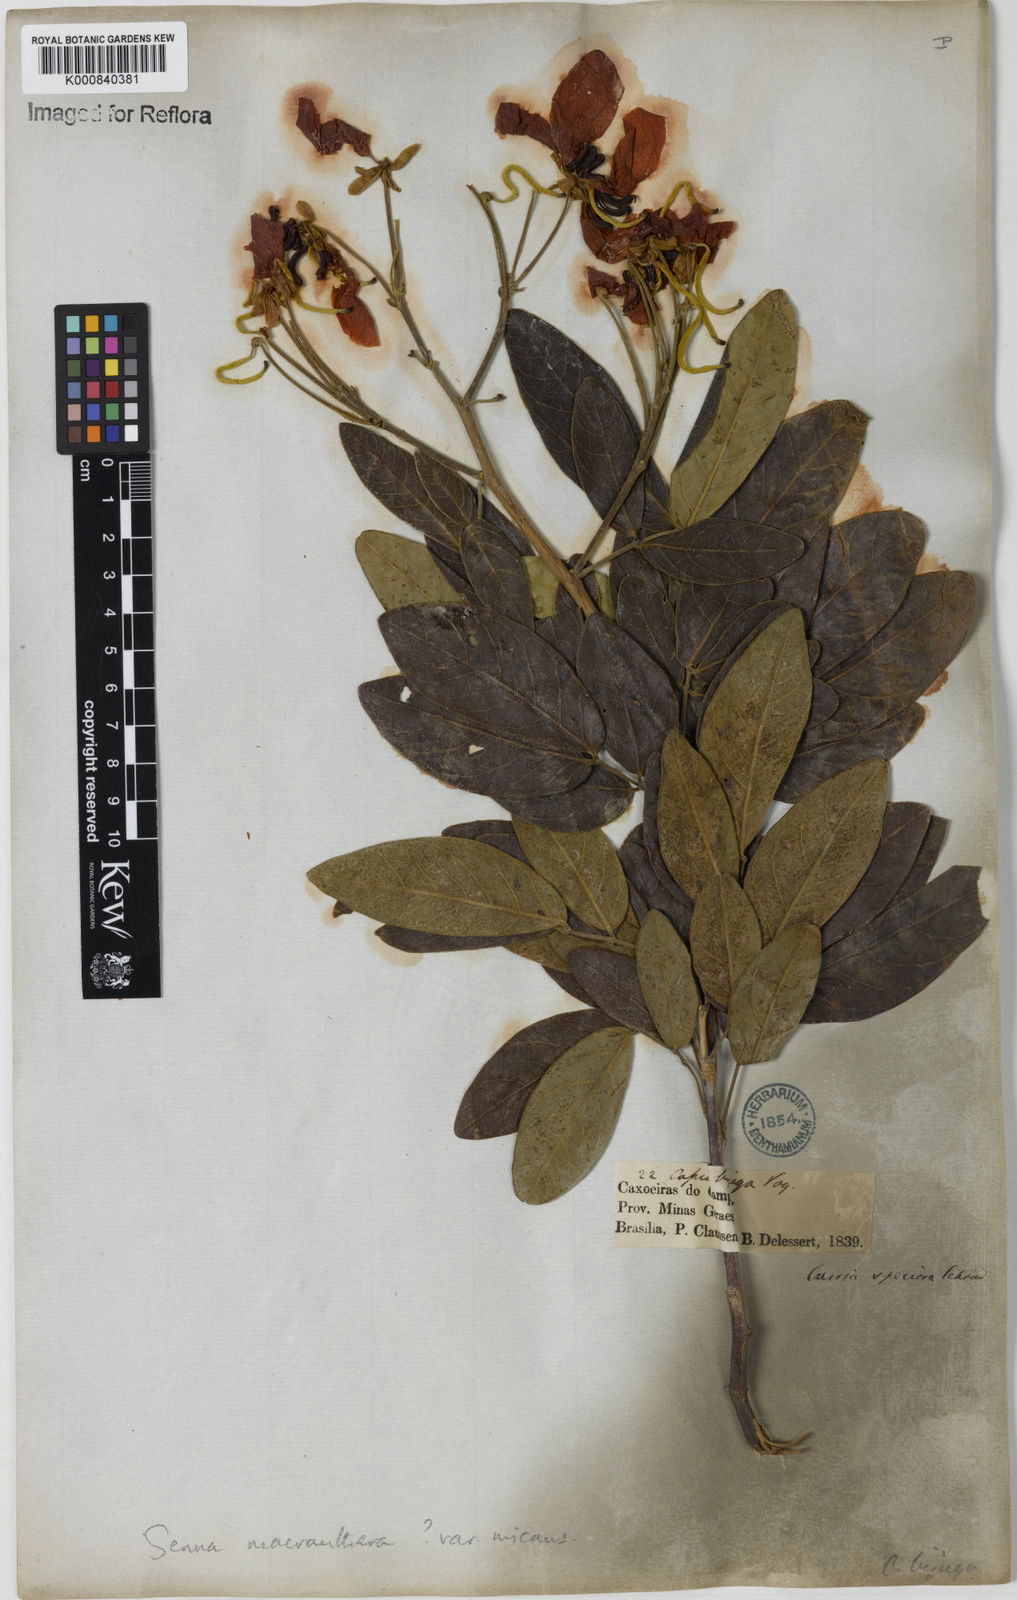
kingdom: Plantae
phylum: Tracheophyta
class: Magnoliopsida
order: Fabales
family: Fabaceae
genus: Senna
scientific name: Senna macranthera
